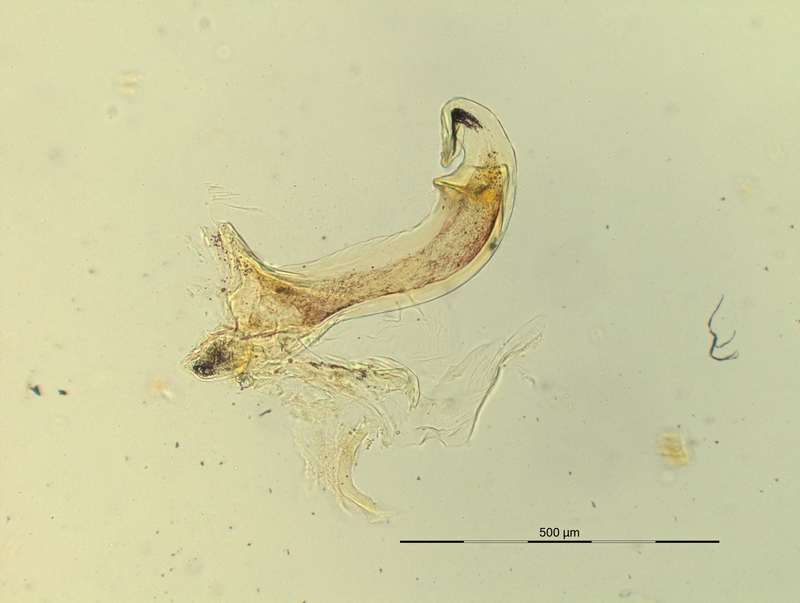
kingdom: Animalia
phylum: Arthropoda
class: Diplopoda
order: Chordeumatida
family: Craspedosomatidae
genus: Pyrgocyphosoma
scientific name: Pyrgocyphosoma tridentinum
